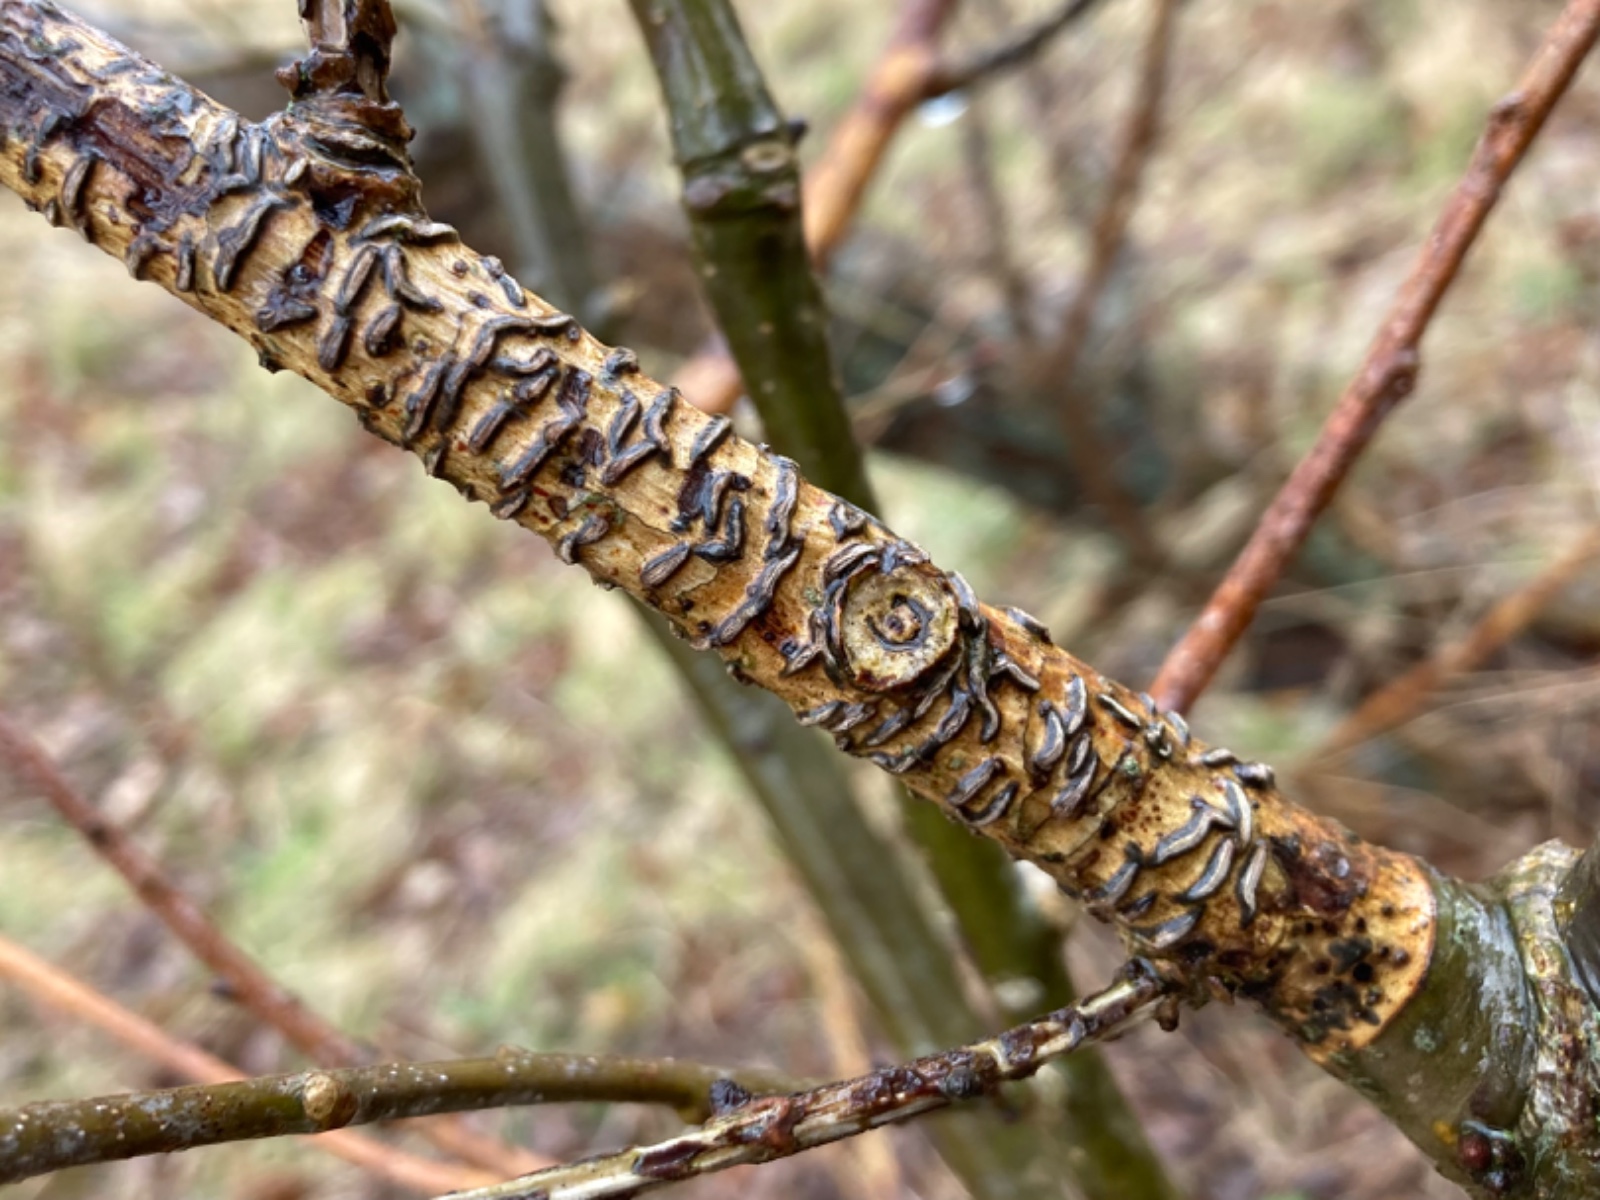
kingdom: Fungi
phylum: Ascomycota
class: Leotiomycetes
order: Rhytismatales
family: Rhytismataceae
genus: Colpoma
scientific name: Colpoma quercinum
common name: ege-sprækkeskive
